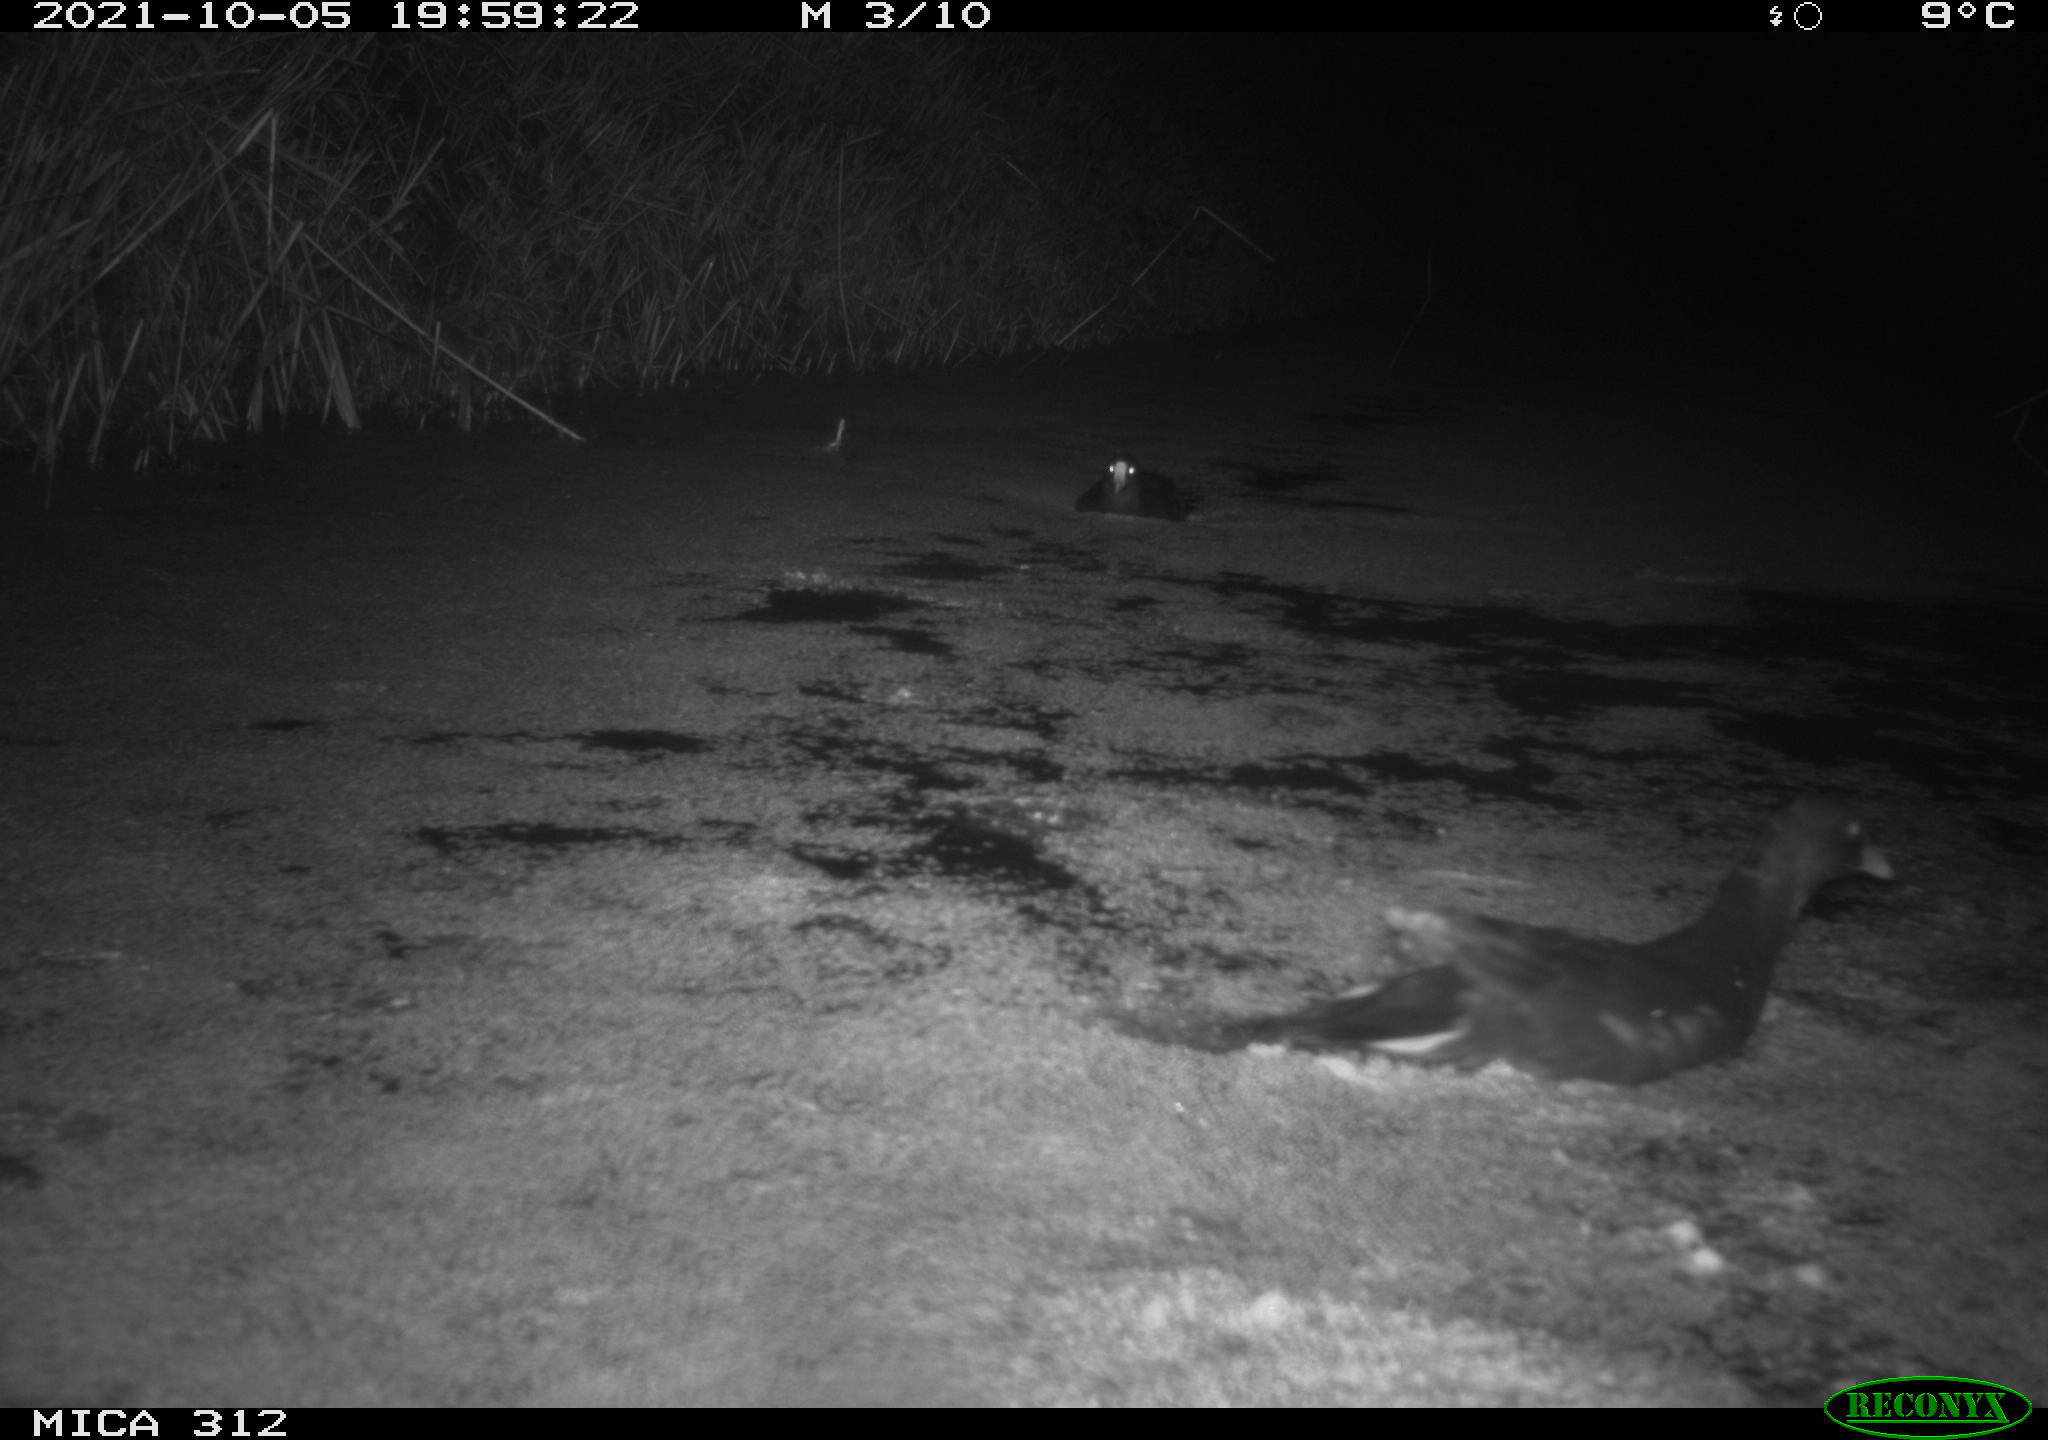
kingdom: Animalia
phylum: Chordata
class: Aves
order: Gruiformes
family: Rallidae
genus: Gallinula
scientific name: Gallinula chloropus
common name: Common moorhen
